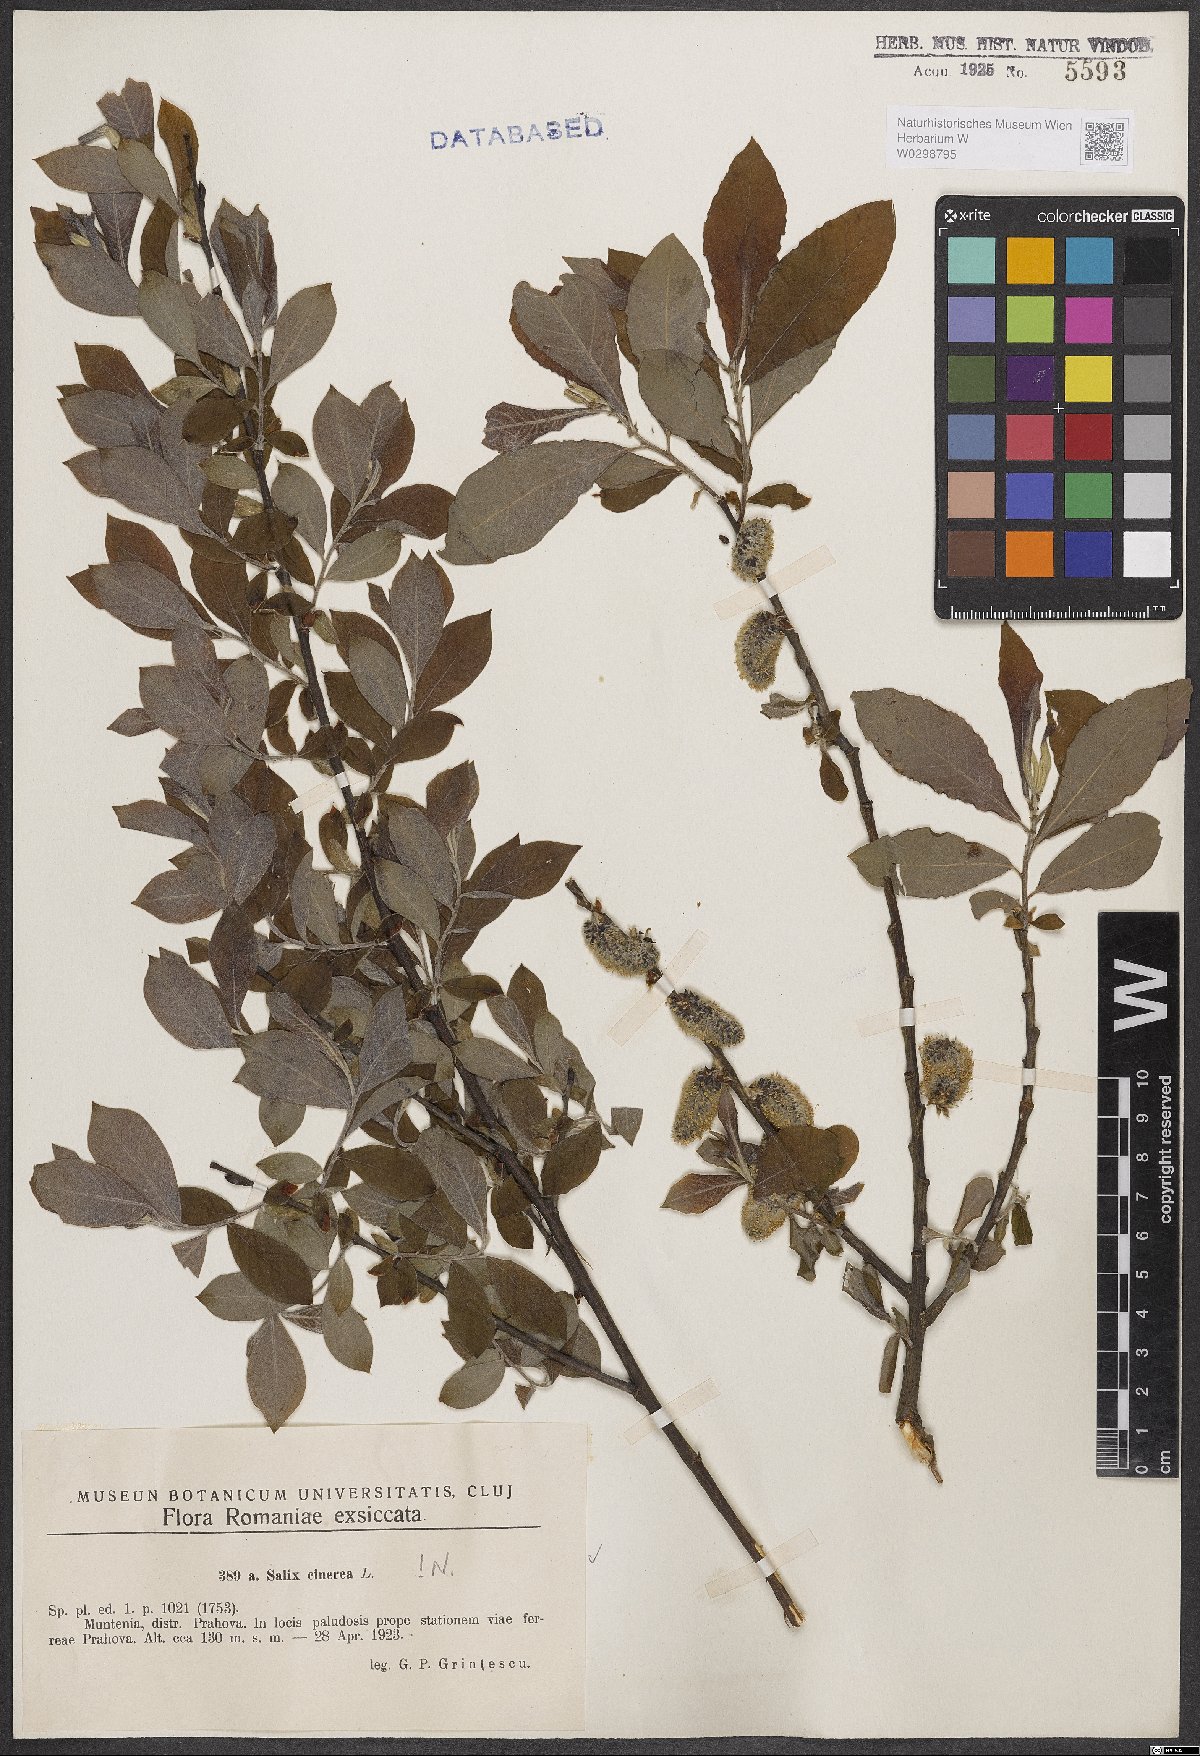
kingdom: Plantae
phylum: Tracheophyta
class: Magnoliopsida
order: Malpighiales
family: Salicaceae
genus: Salix
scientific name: Salix cinerea
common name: Common sallow
